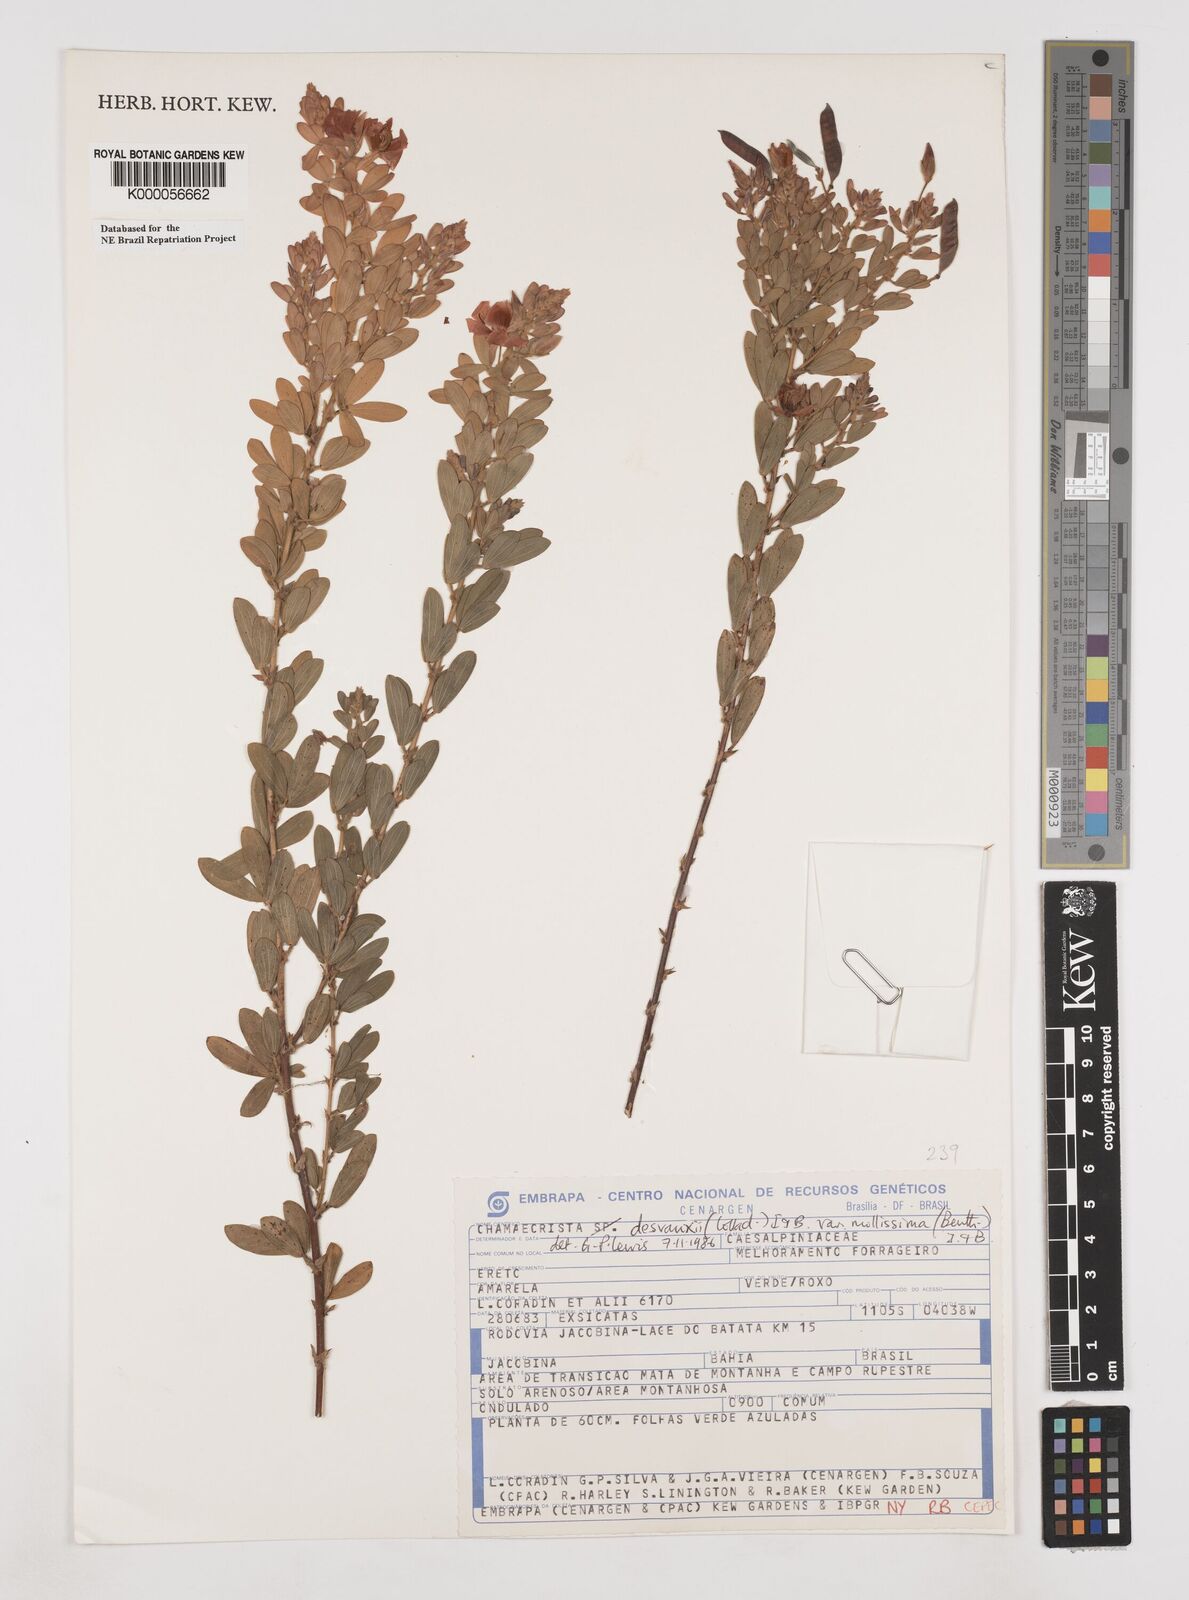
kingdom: Plantae
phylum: Tracheophyta
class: Magnoliopsida
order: Fabales
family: Fabaceae
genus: Chamaecrista
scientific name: Chamaecrista desvauxii
